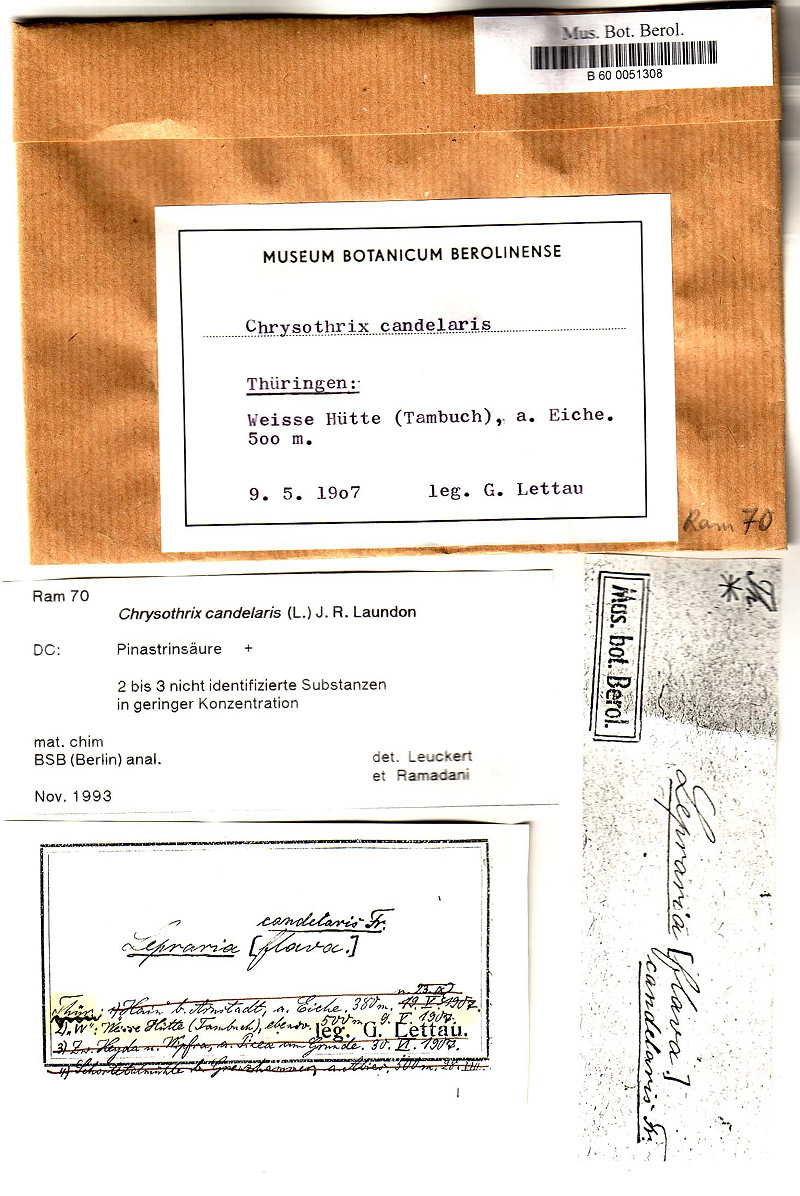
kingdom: Fungi
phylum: Ascomycota
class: Arthoniomycetes
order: Arthoniales
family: Chrysotrichaceae
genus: Chrysothrix
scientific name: Chrysothrix candelaris
